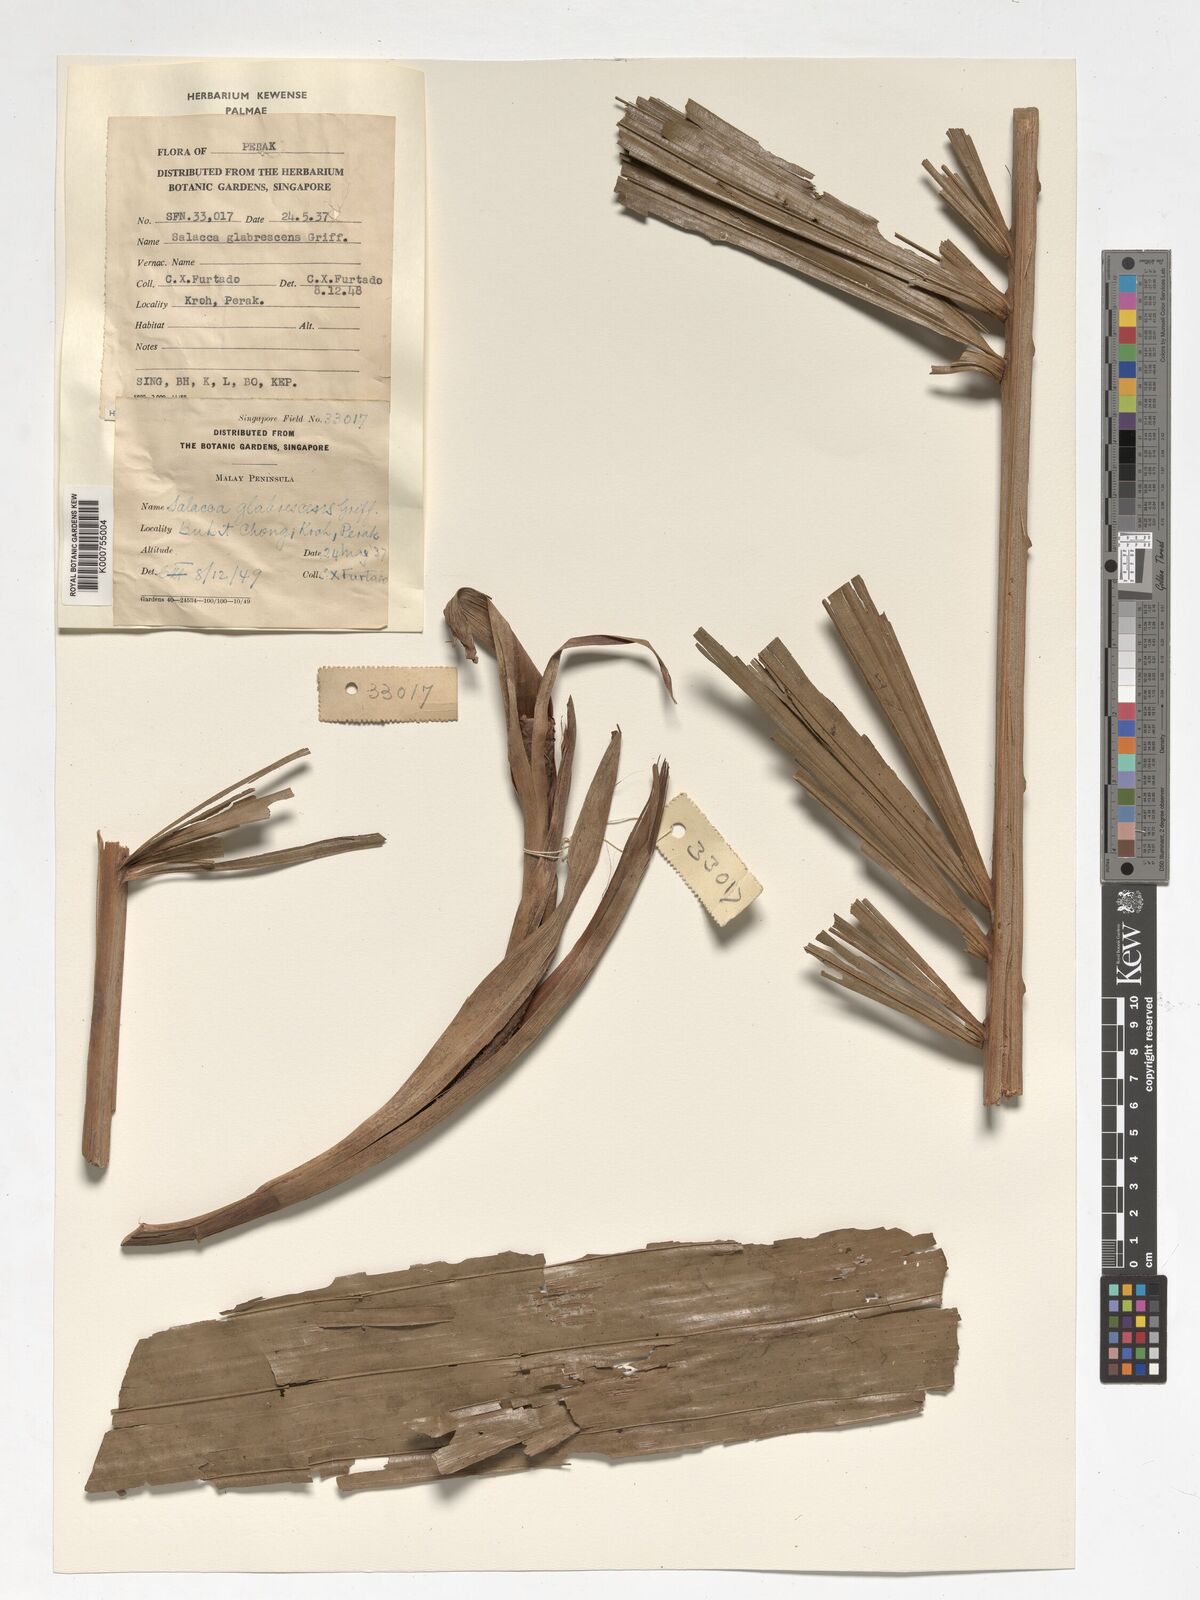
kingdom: Plantae
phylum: Tracheophyta
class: Liliopsida
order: Arecales
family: Arecaceae
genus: Salacca
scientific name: Salacca glabrescens
